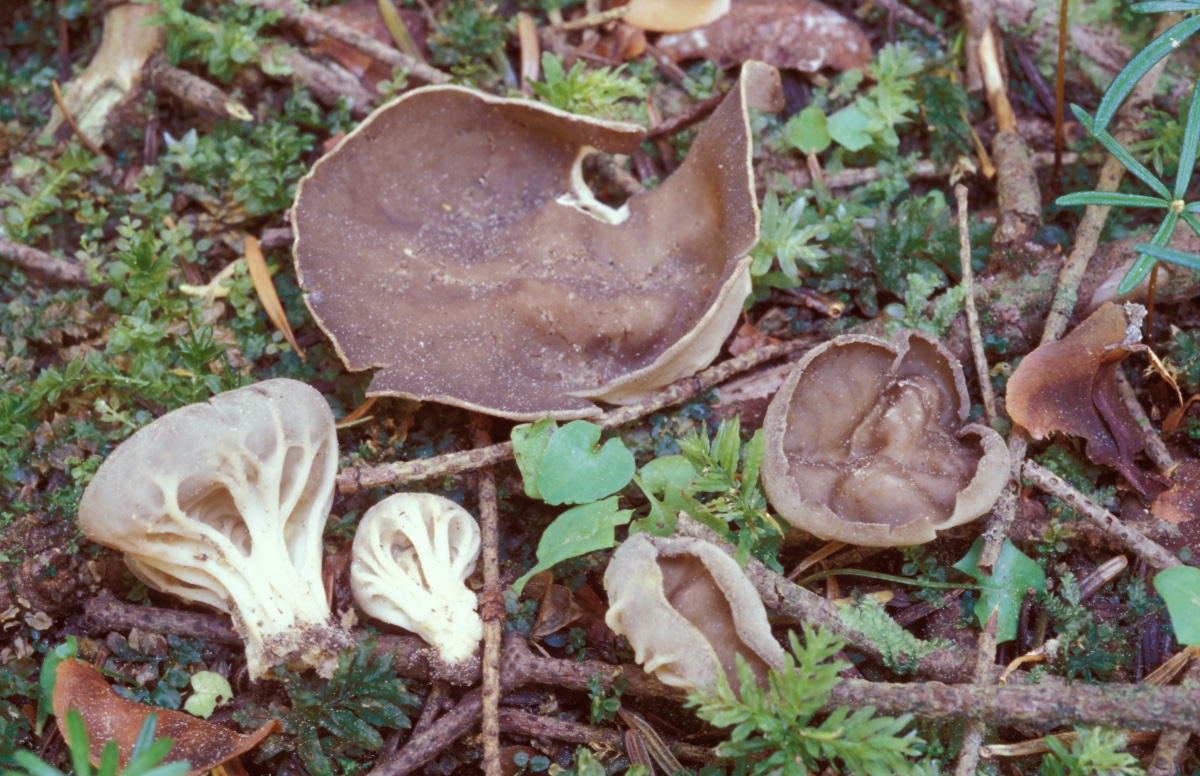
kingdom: Fungi
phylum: Ascomycota
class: Pezizomycetes
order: Pezizales
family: Helvellaceae
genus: Helvella
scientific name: Helvella calycina
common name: ribbet foldhat
